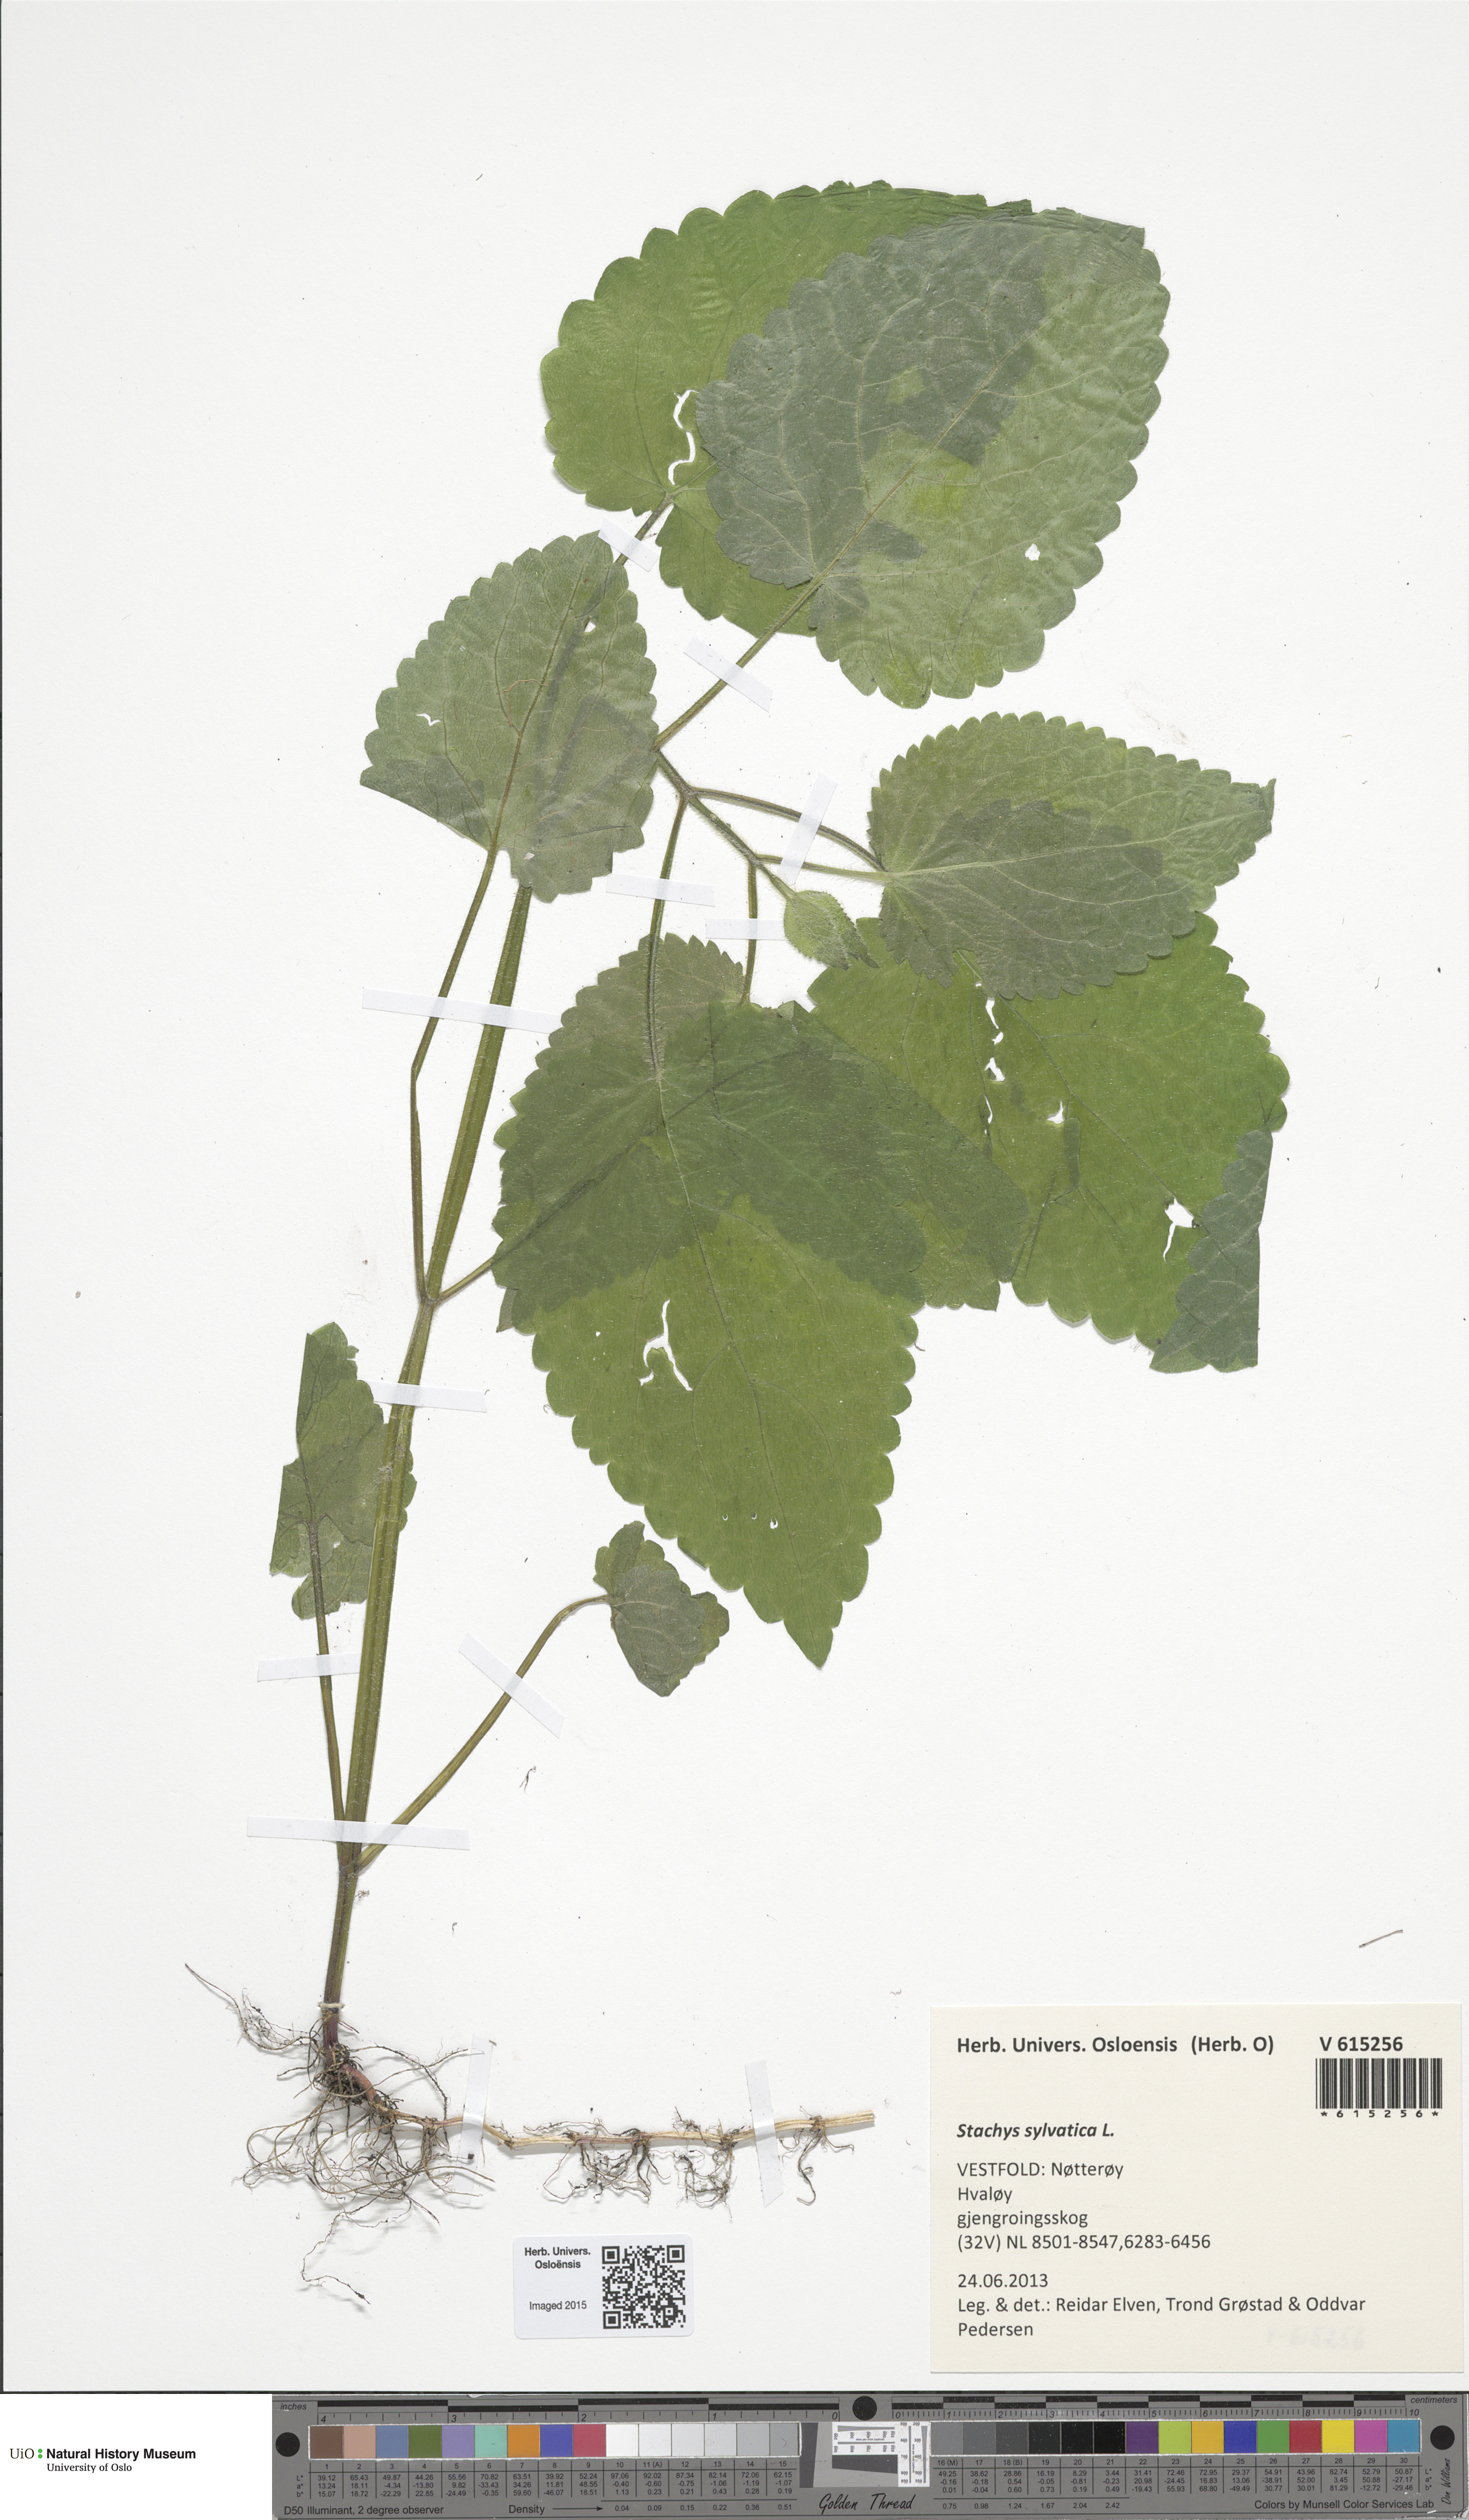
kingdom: Plantae
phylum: Tracheophyta
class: Magnoliopsida
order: Lamiales
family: Lamiaceae
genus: Stachys
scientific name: Stachys sylvatica
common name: Hedge woundwort
